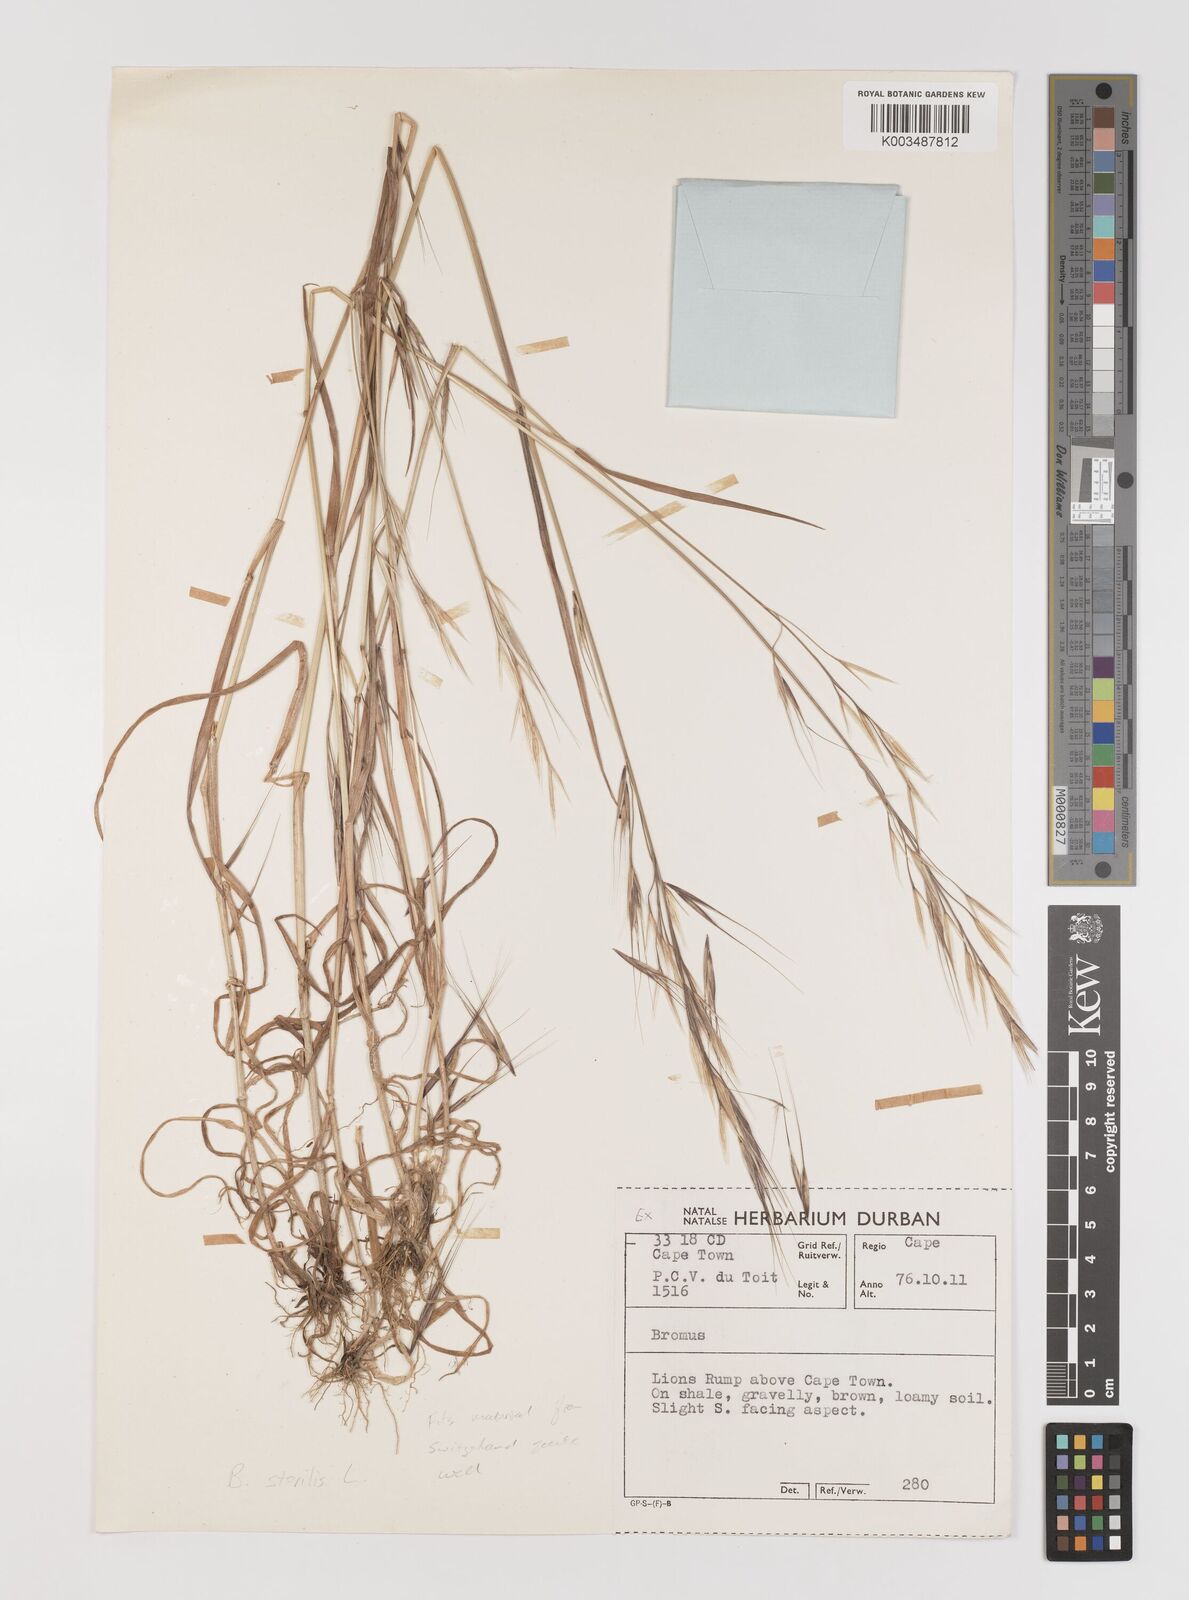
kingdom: Plantae
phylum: Tracheophyta
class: Liliopsida
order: Poales
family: Poaceae
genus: Bromus
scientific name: Bromus sterilis
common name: Poverty brome
